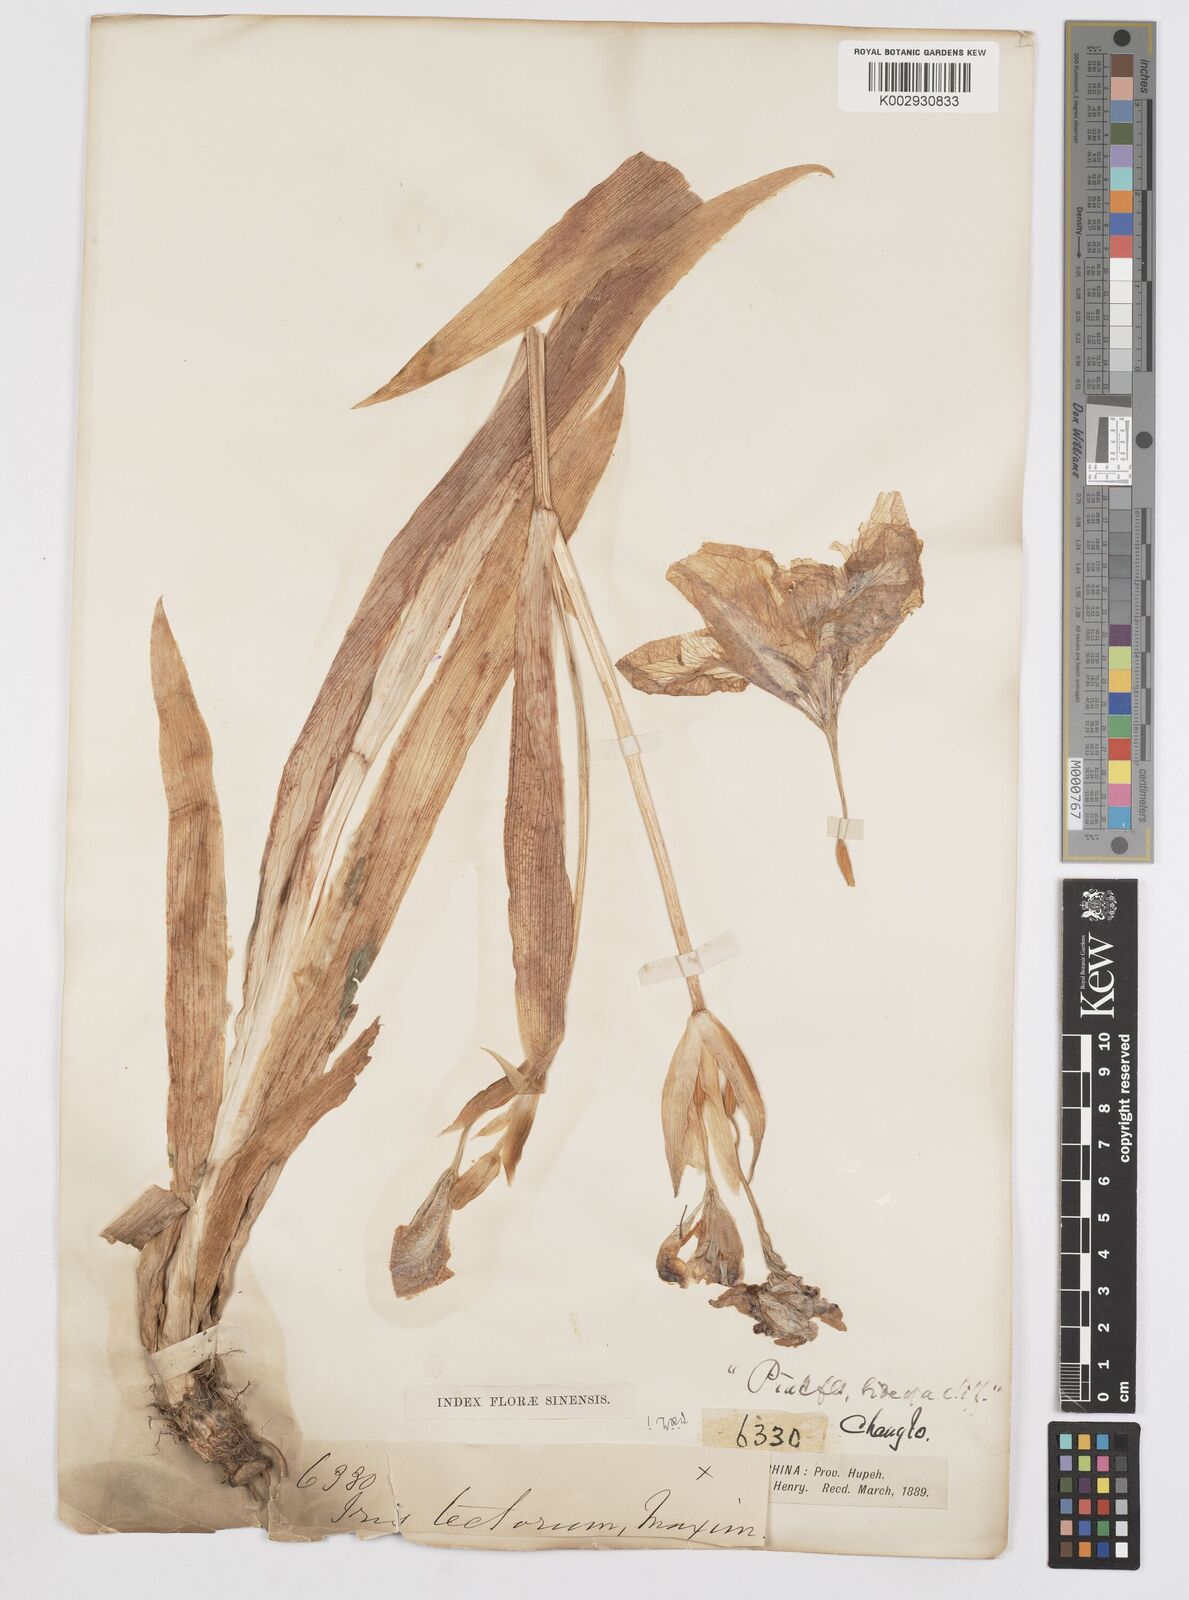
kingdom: Plantae
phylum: Tracheophyta
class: Liliopsida
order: Asparagales
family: Iridaceae
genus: Iris
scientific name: Iris tectorum
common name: Wall iris
